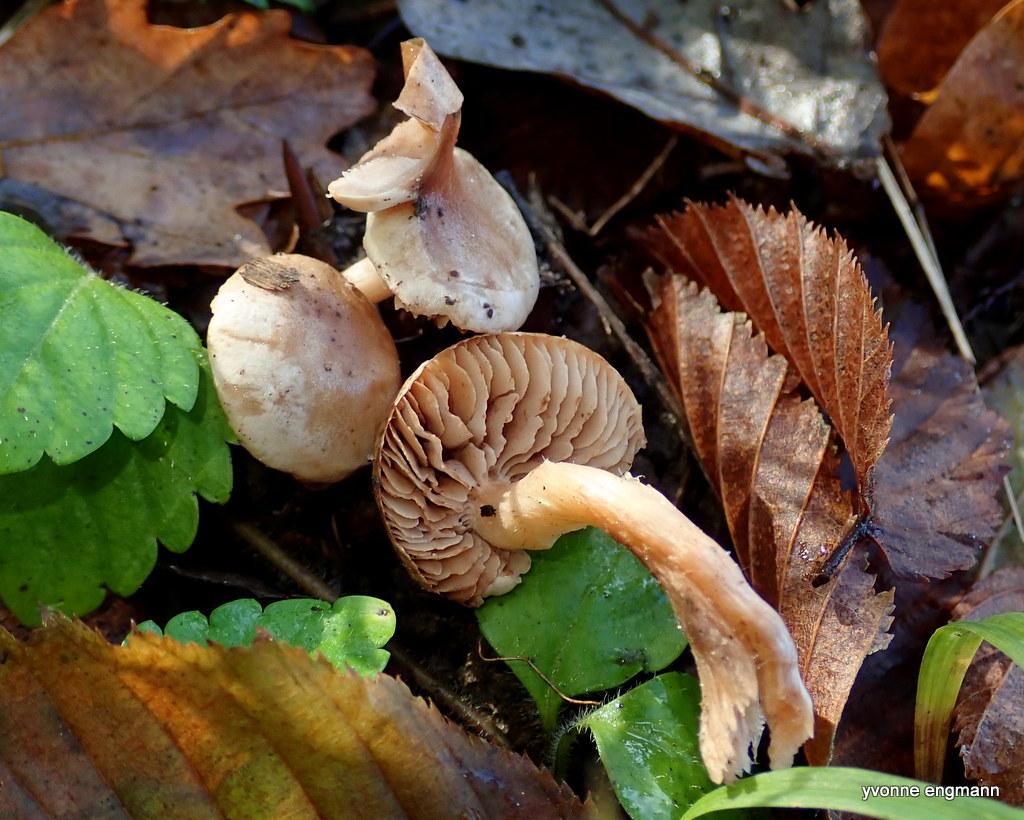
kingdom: Fungi
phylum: Basidiomycota
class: Agaricomycetes
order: Agaricales
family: Hymenogastraceae
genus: Hebeloma
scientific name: Hebeloma sacchariolens
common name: sødtduftende tåreblad
